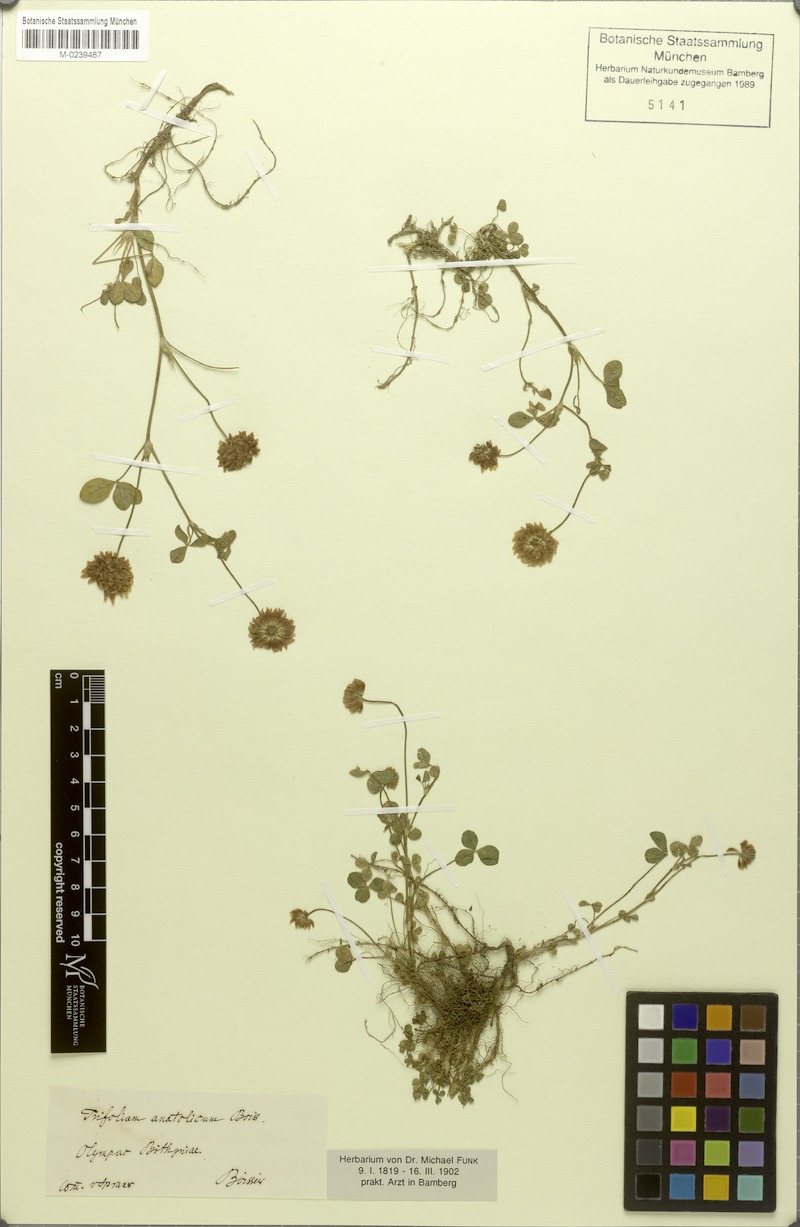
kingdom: Plantae
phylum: Tracheophyta
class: Magnoliopsida
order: Fabales
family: Fabaceae
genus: Trifolium
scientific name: Trifolium hybridum
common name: Alsike clover
